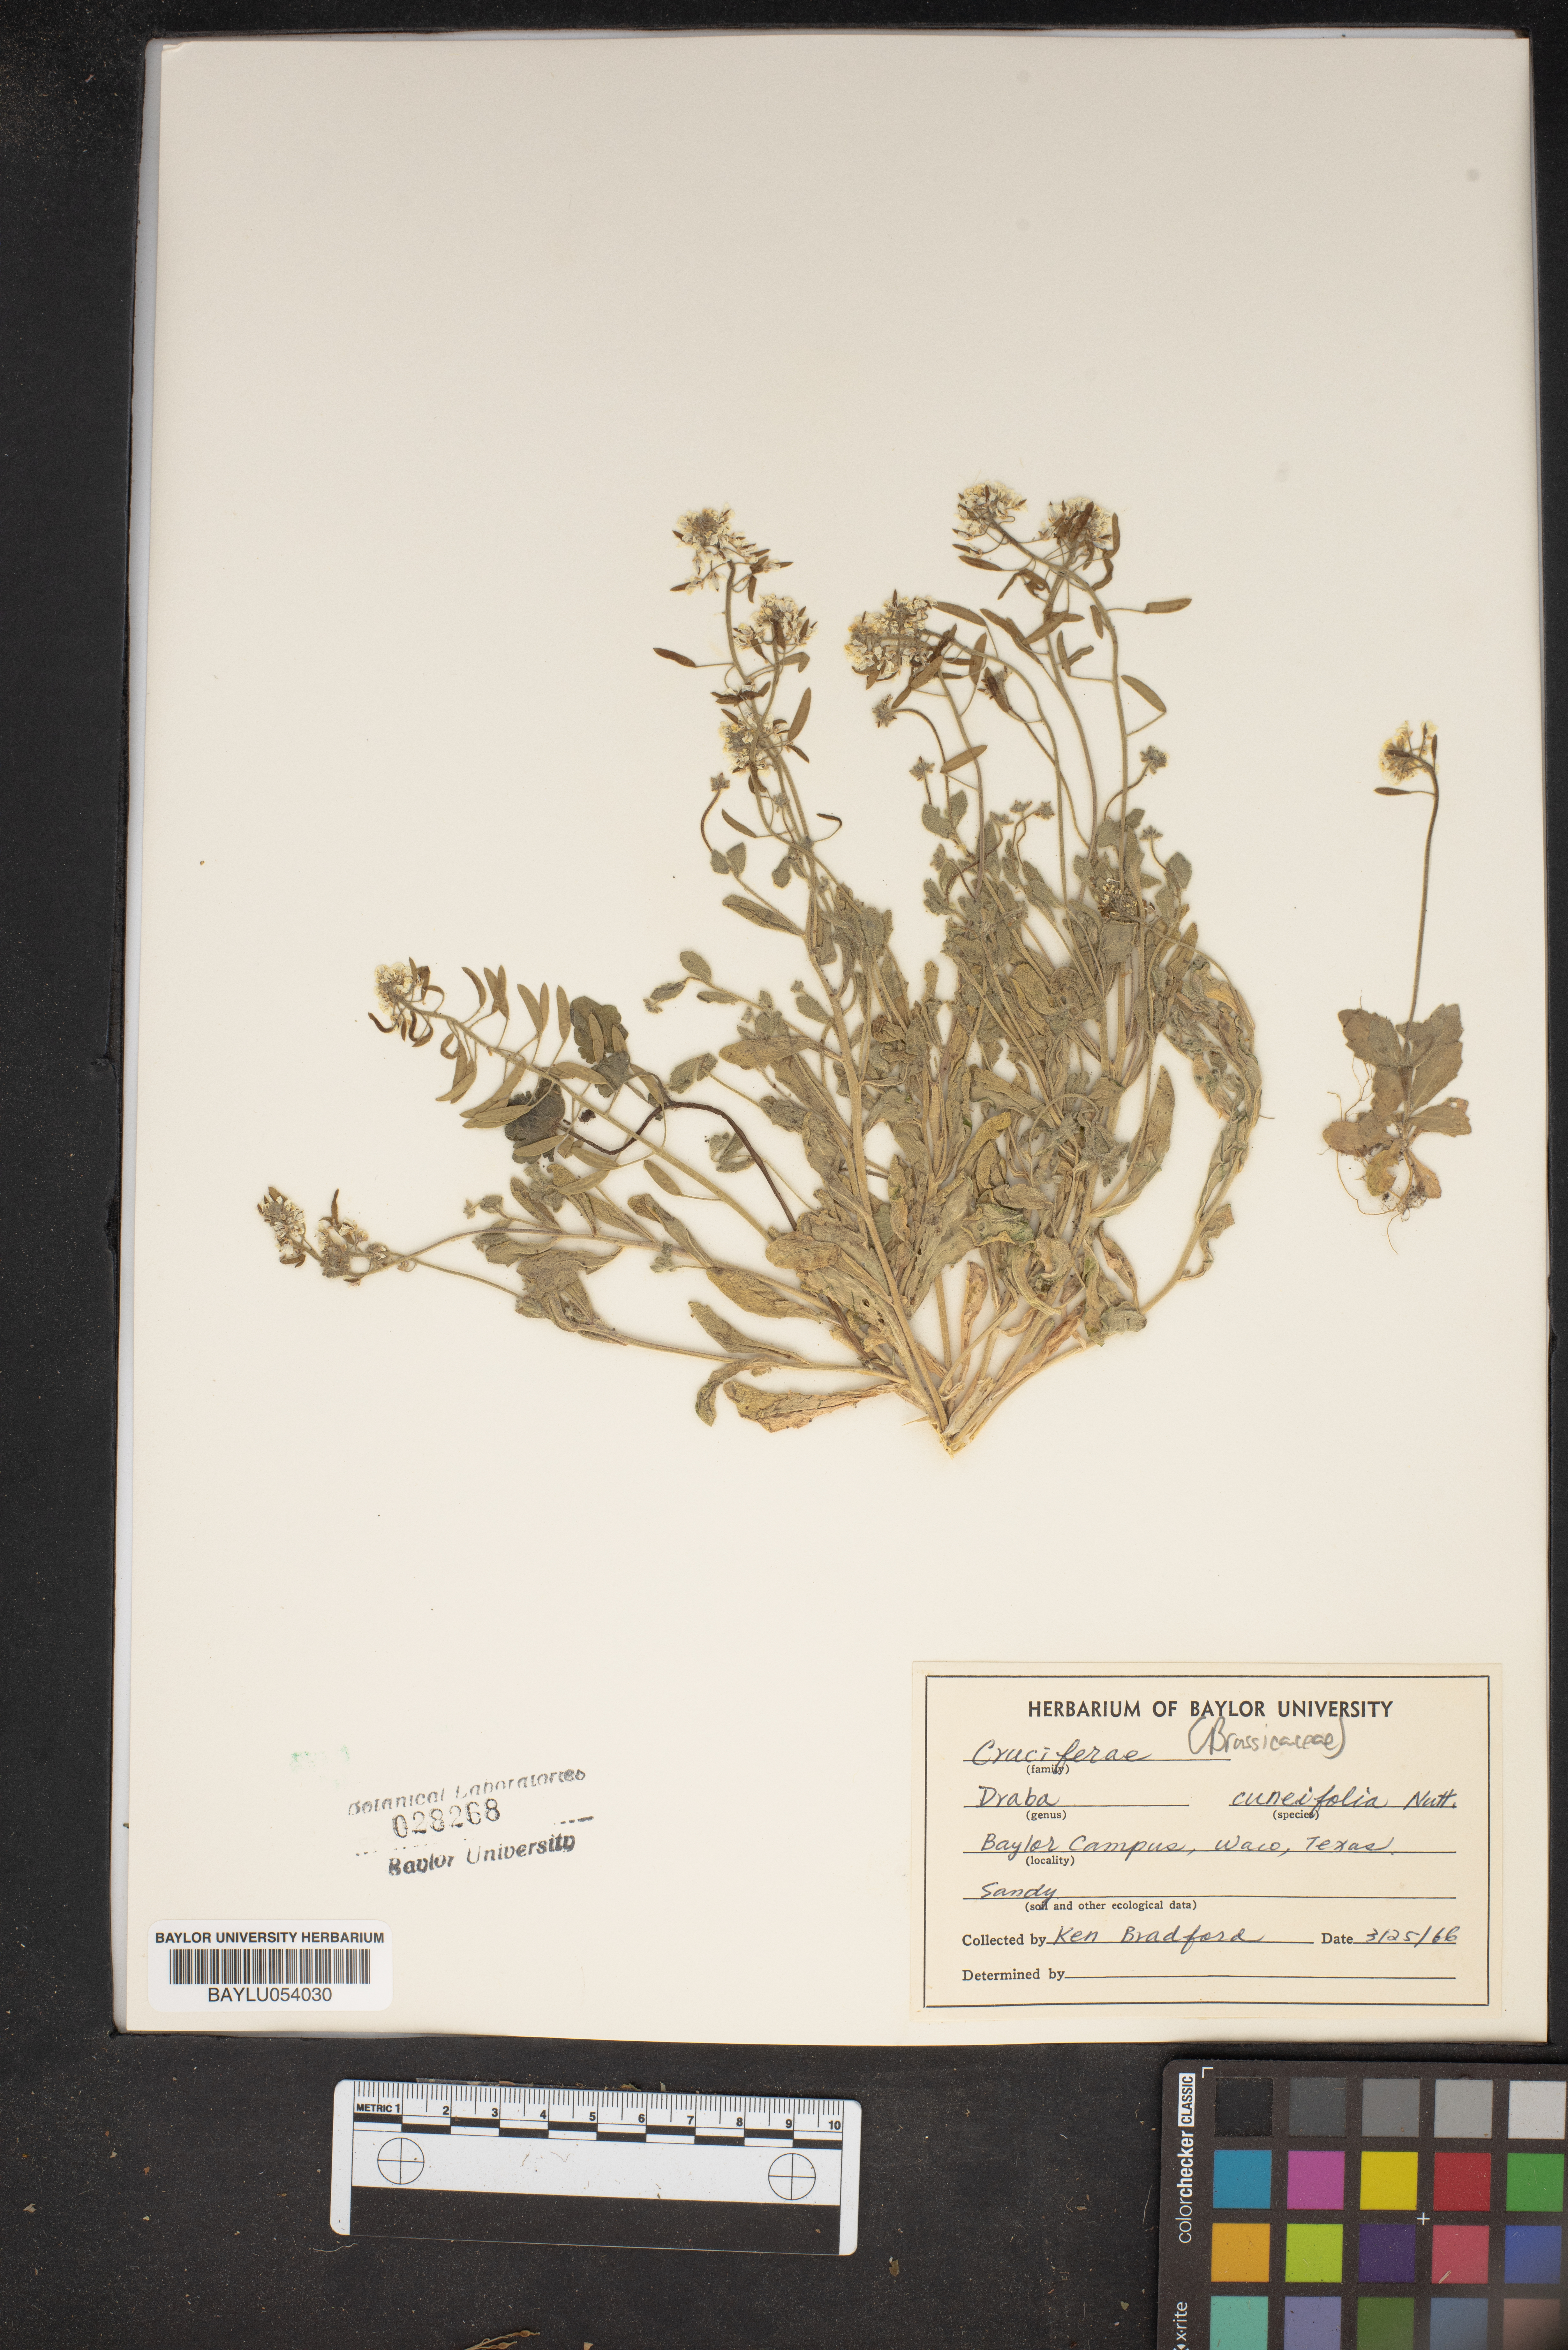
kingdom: Plantae
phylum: Tracheophyta
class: Magnoliopsida
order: Brassicales
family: Brassicaceae
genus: Tomostima
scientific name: Tomostima cuneifolia
